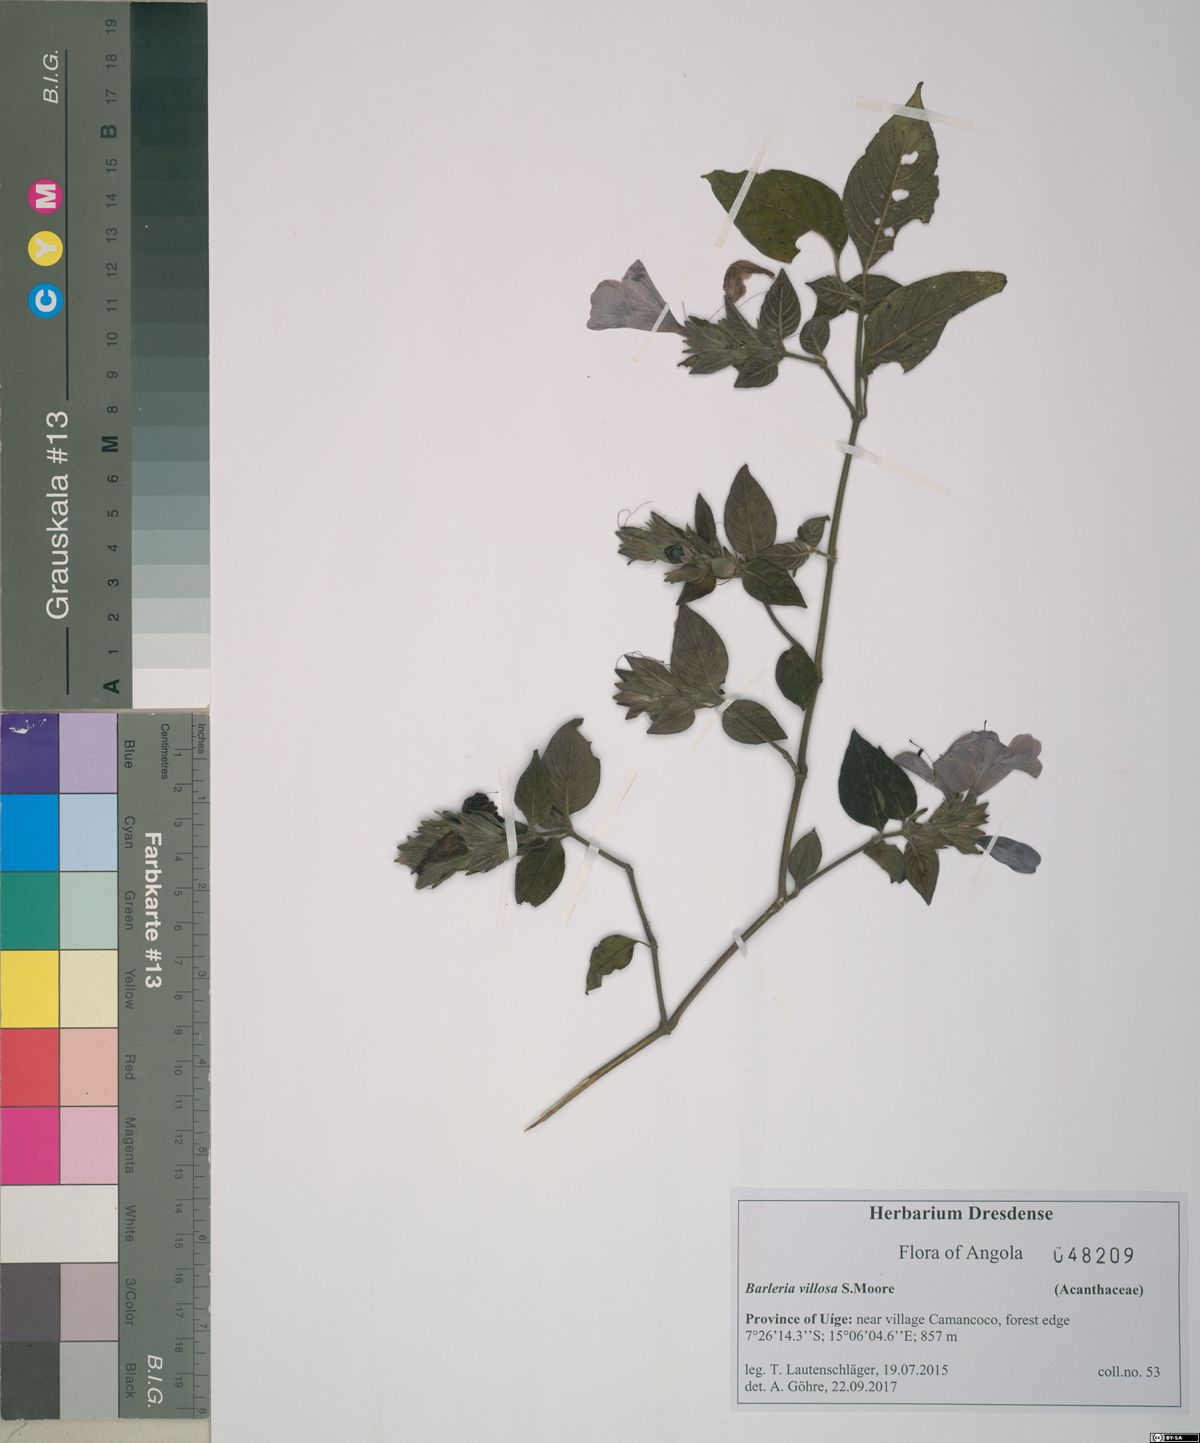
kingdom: Plantae
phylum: Tracheophyta
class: Magnoliopsida
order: Lamiales
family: Acanthaceae
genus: Barleria
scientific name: Barleria villosa
